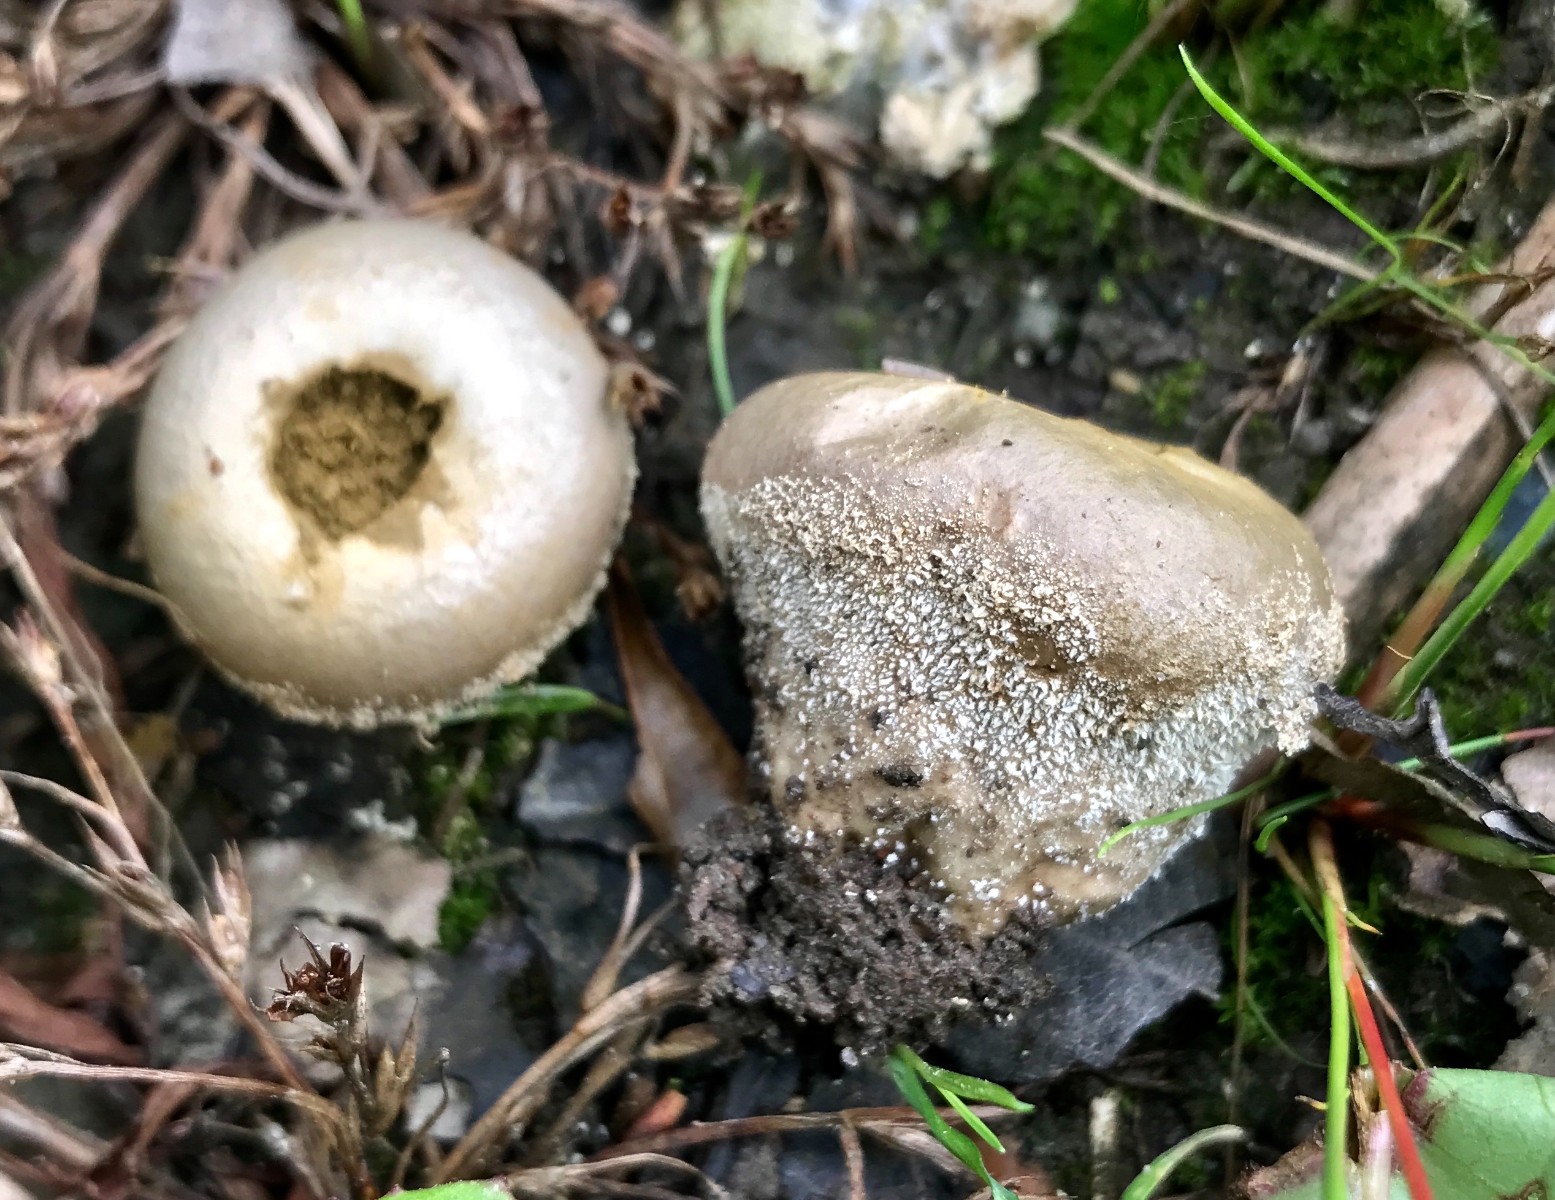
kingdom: Fungi
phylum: Basidiomycota
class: Agaricomycetes
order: Agaricales
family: Lycoperdaceae
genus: Lycoperdon
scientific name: Lycoperdon pratense
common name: flad støvbold
